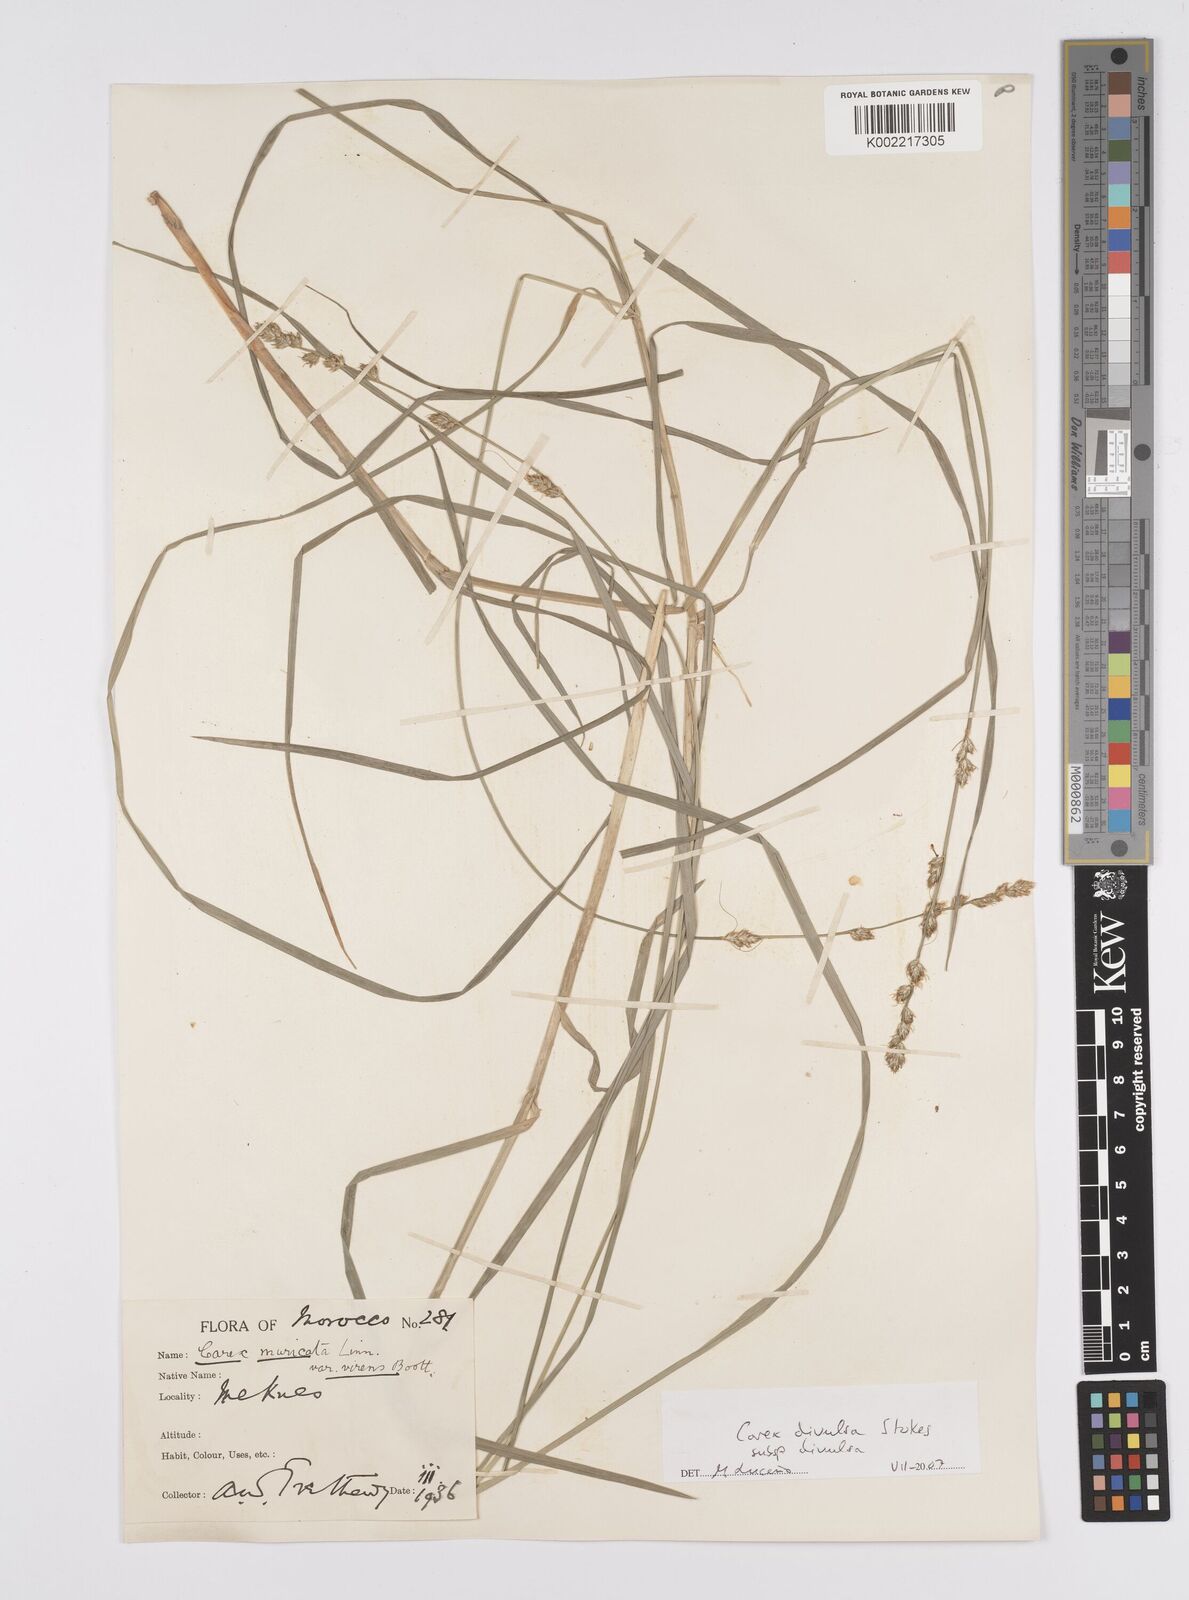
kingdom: Plantae
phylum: Tracheophyta
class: Liliopsida
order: Poales
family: Cyperaceae
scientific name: Cyperaceae
